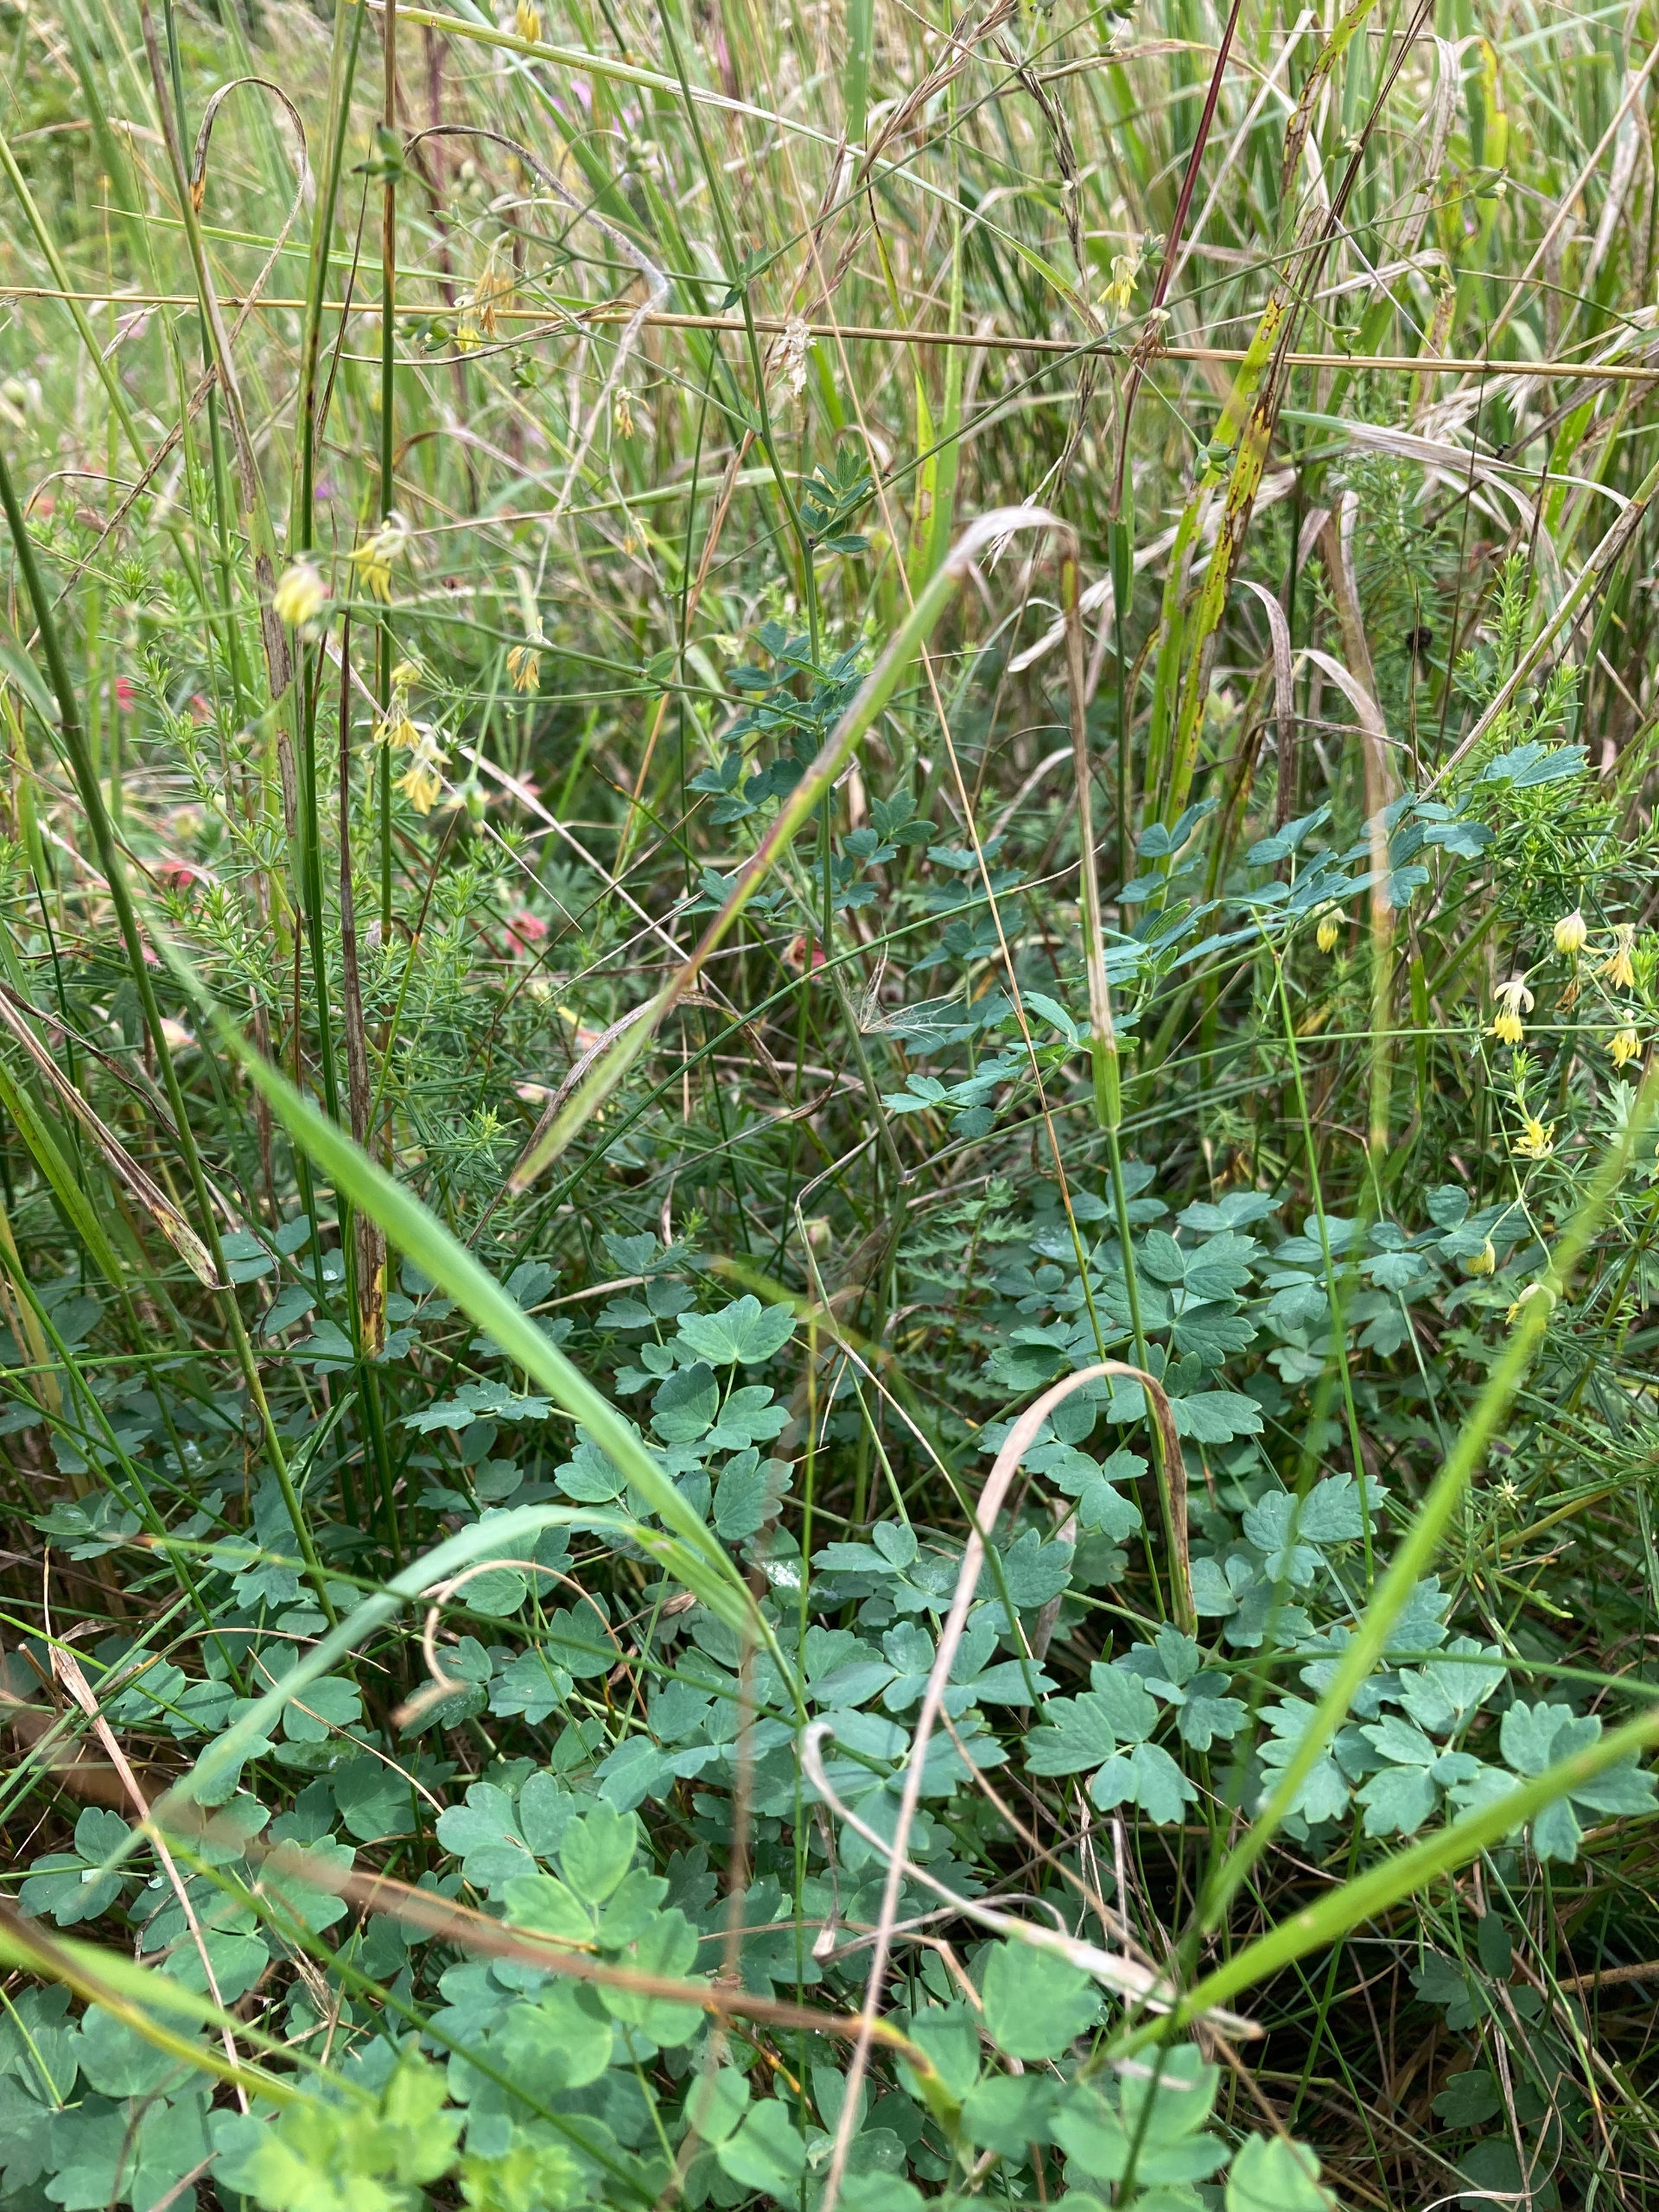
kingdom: Plantae
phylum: Tracheophyta
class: Magnoliopsida
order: Ranunculales
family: Ranunculaceae
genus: Thalictrum
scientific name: Thalictrum minus
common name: Bugtet frøstjerne
